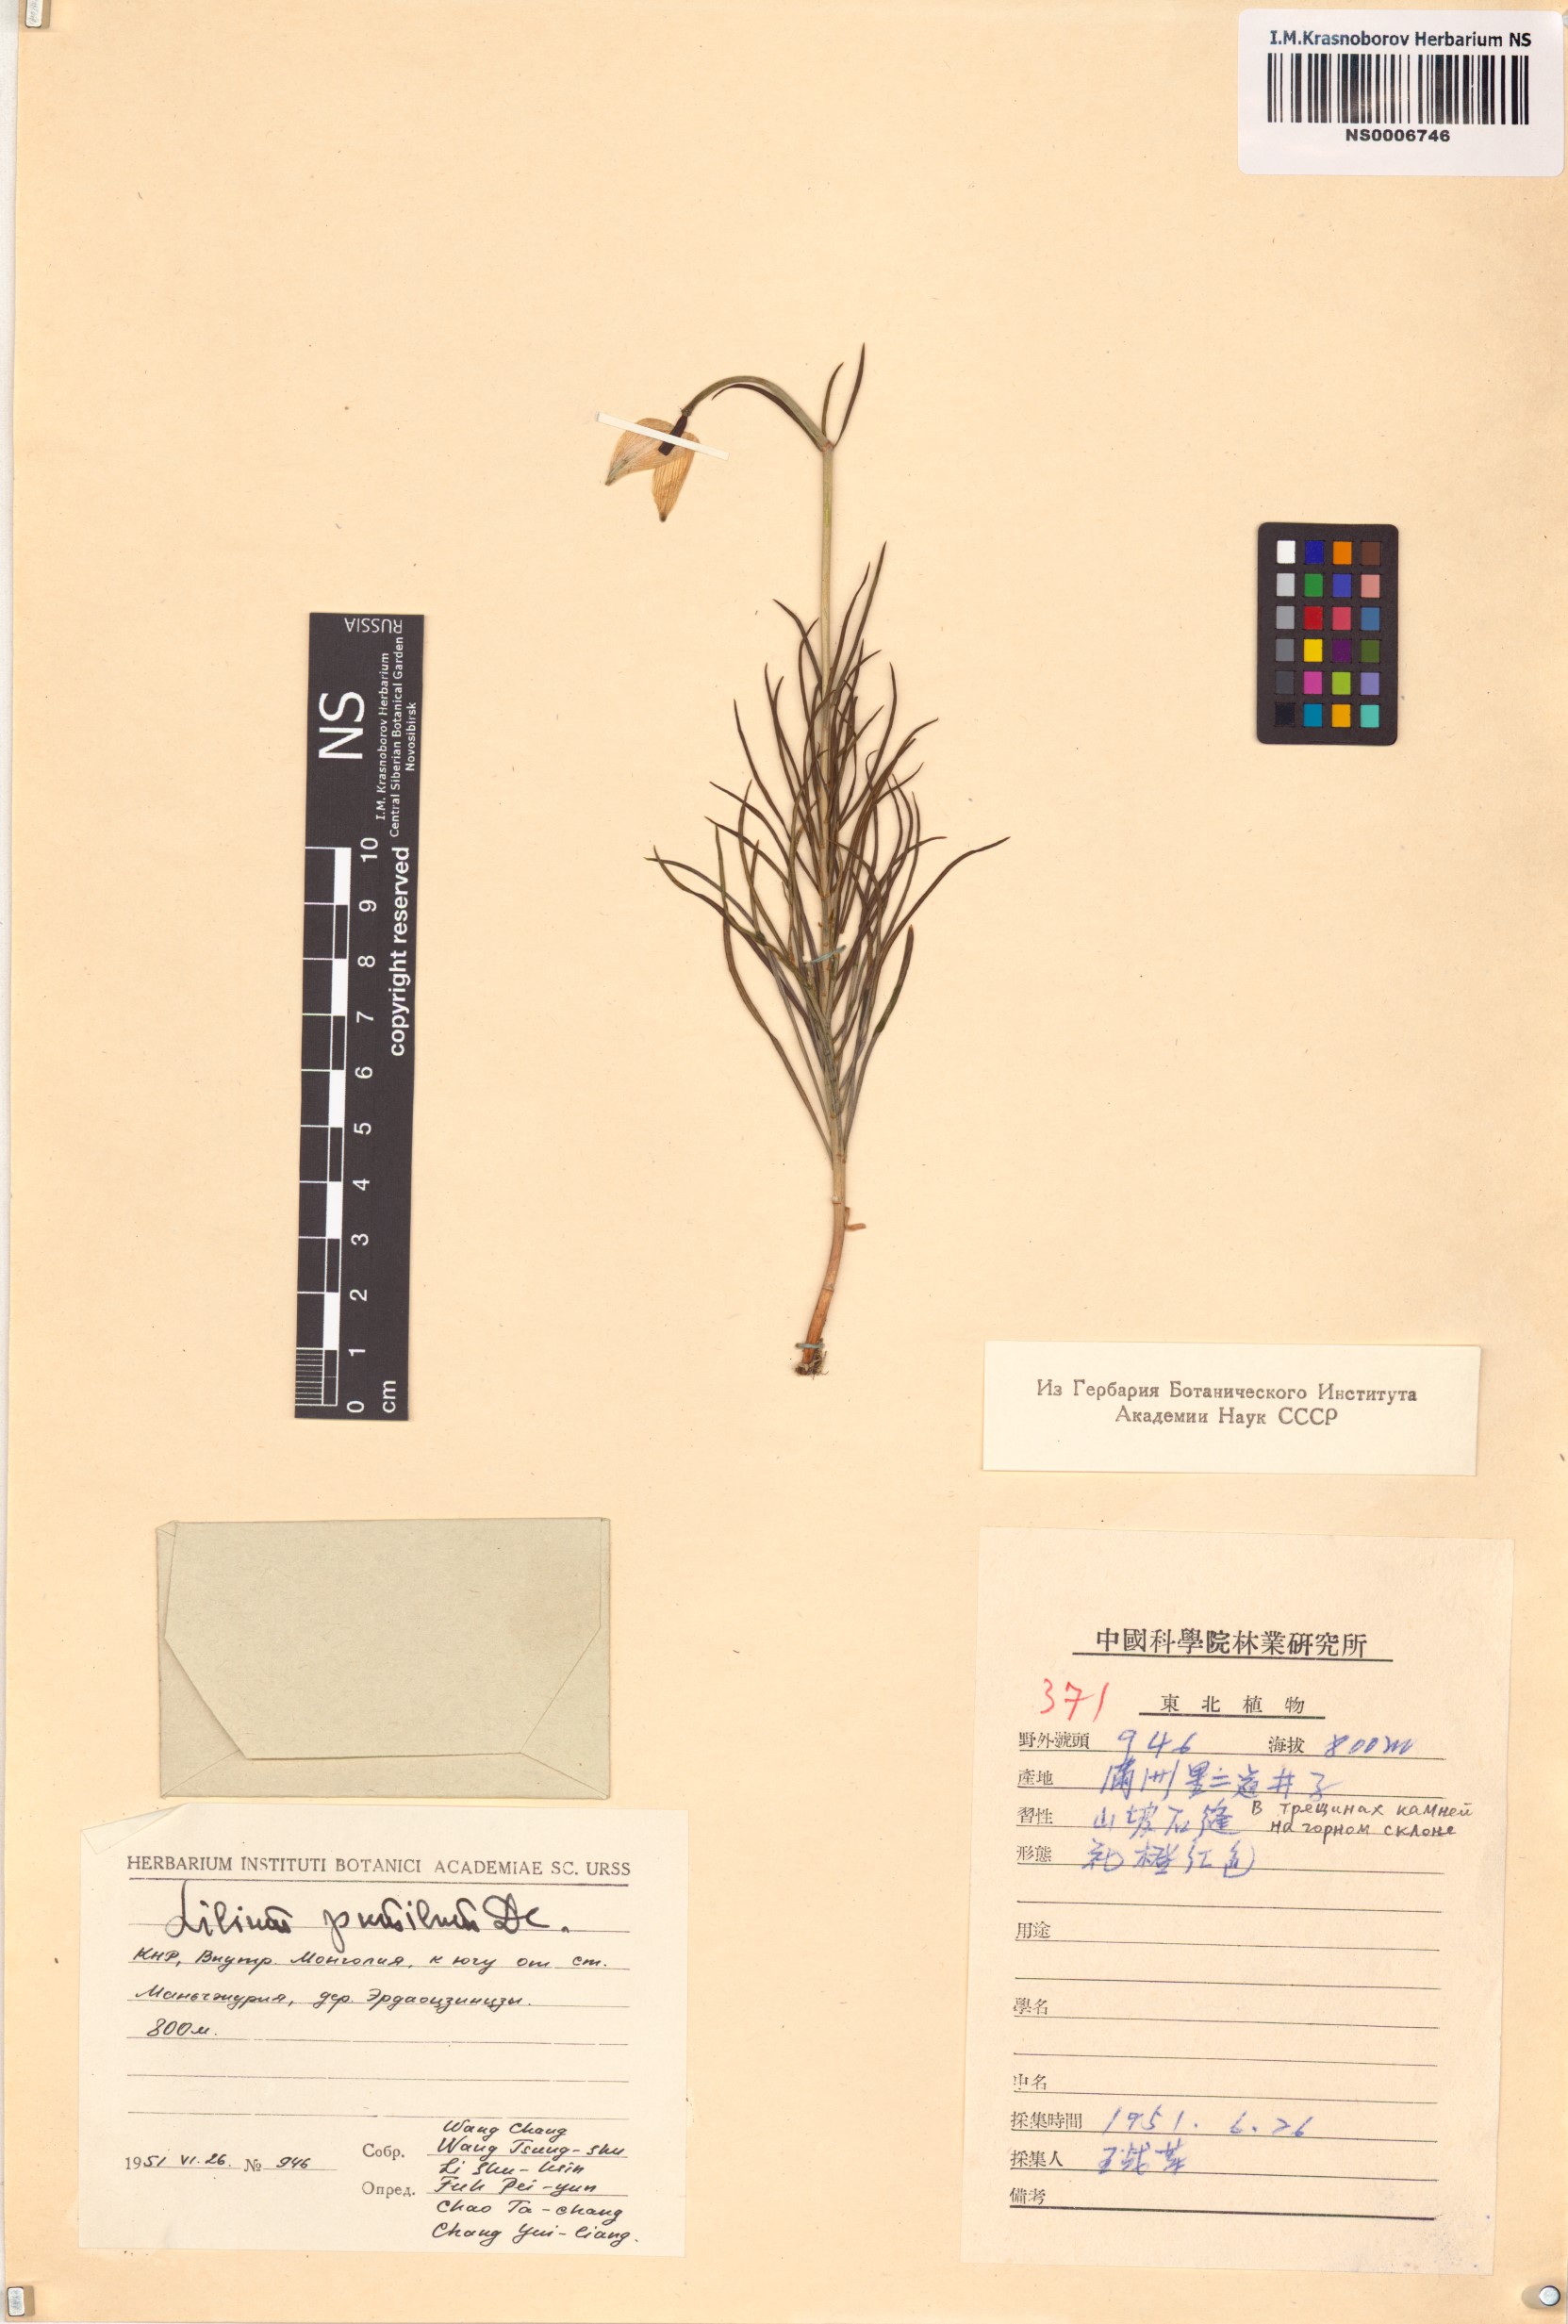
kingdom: Plantae
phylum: Tracheophyta
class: Liliopsida
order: Liliales
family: Liliaceae
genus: Lilium
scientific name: Lilium pumilum
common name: Coral lily
